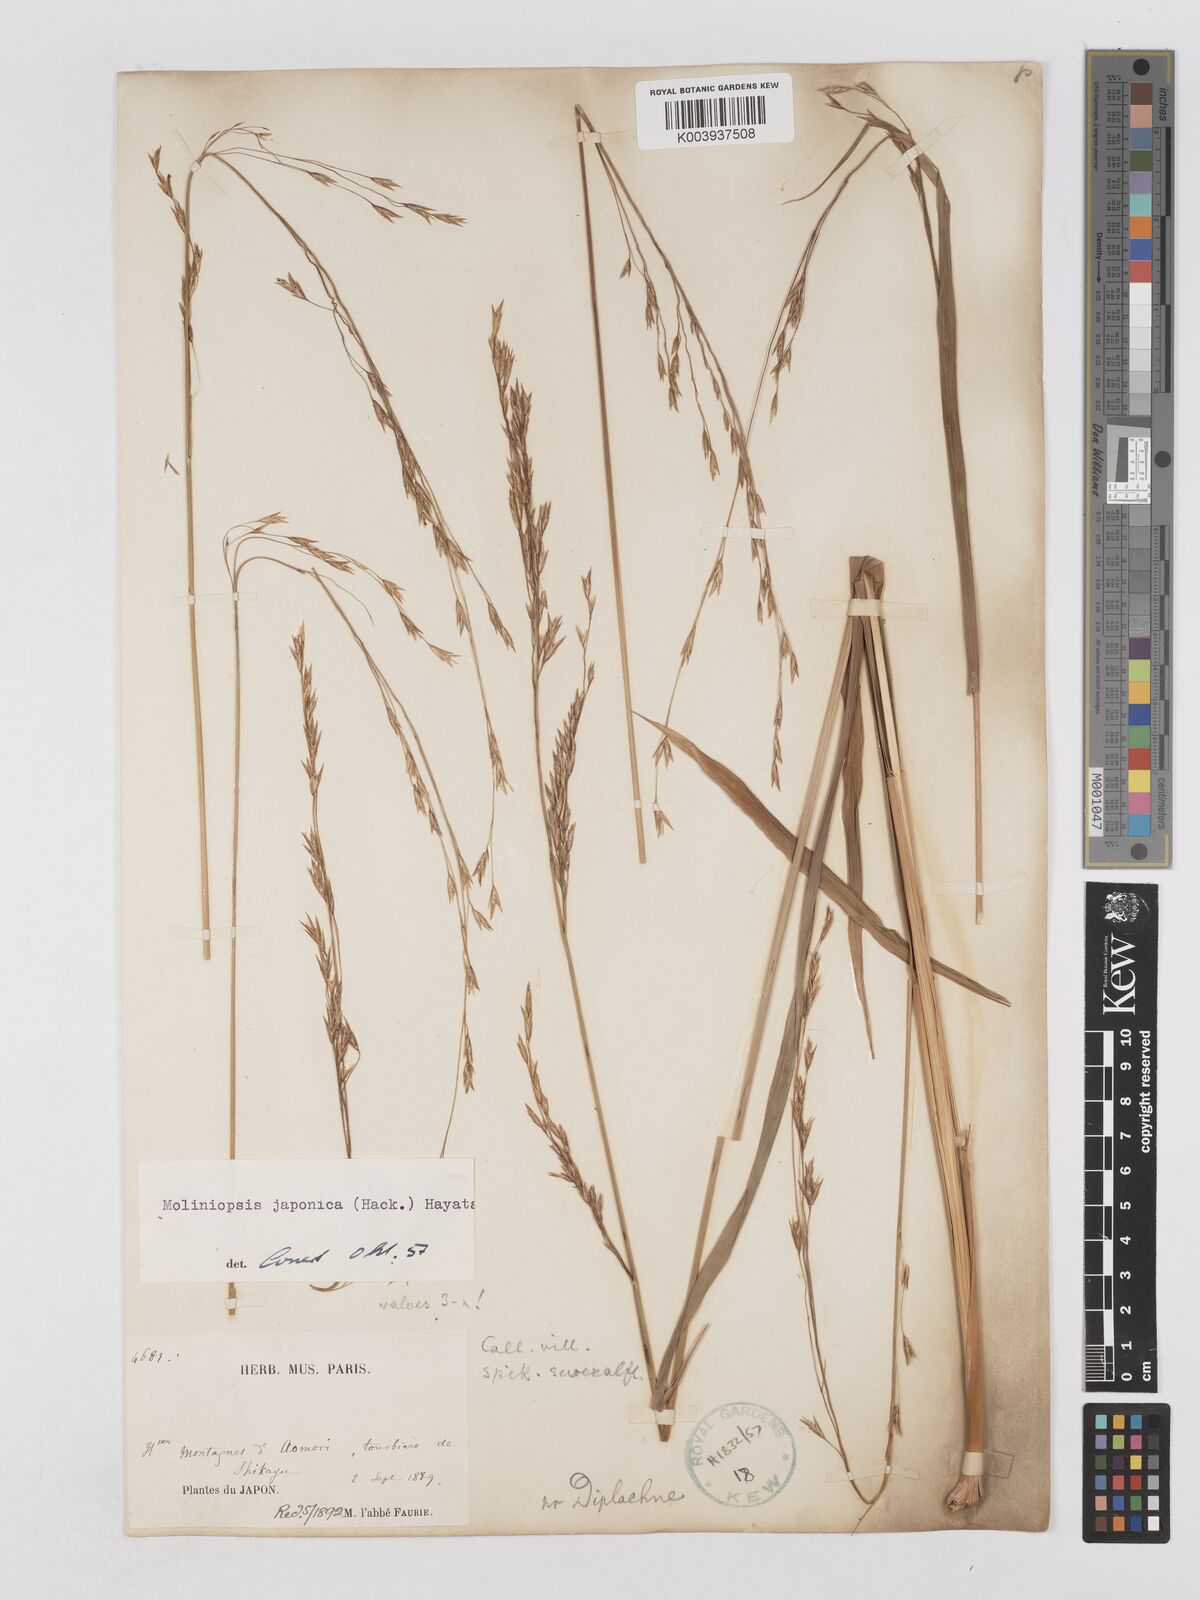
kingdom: Plantae
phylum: Tracheophyta
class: Liliopsida
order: Poales
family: Poaceae
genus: Moliniopsis
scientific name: Moliniopsis japonica
